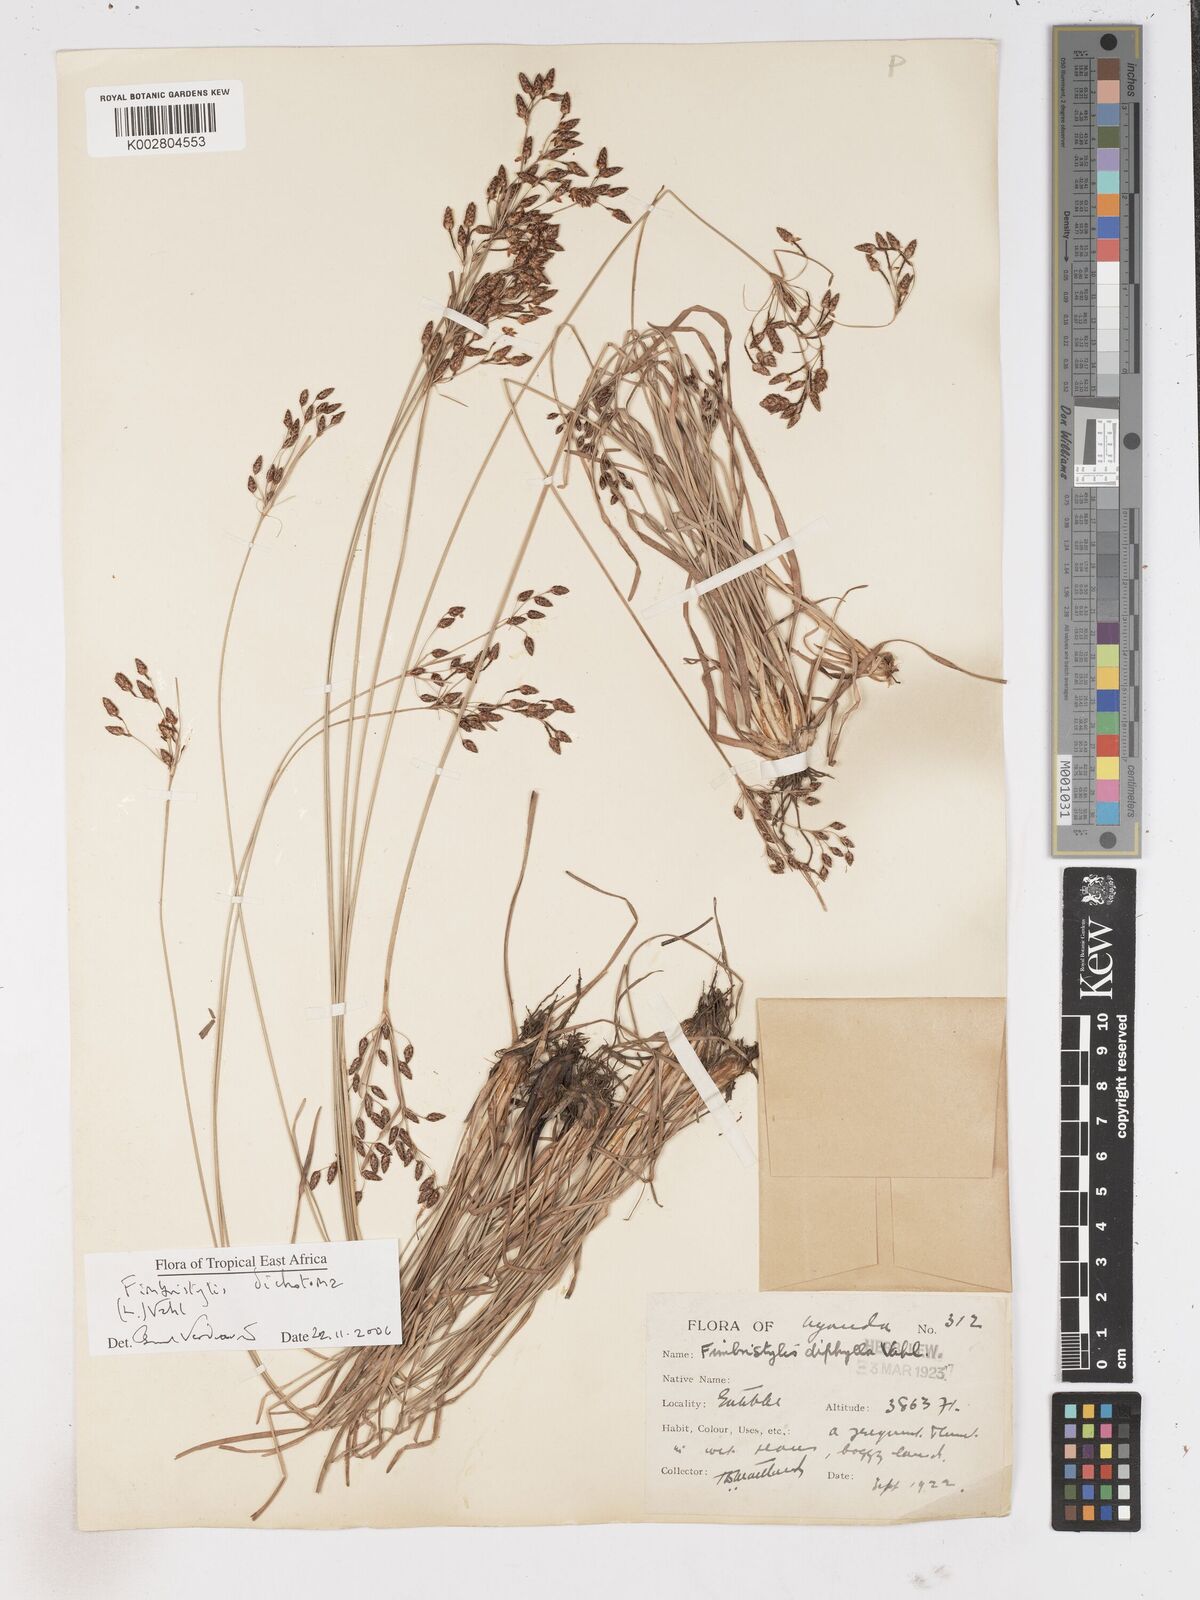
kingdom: Plantae
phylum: Tracheophyta
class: Liliopsida
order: Poales
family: Cyperaceae
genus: Fimbristylis
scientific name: Fimbristylis dichotoma
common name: Forked fimbry
